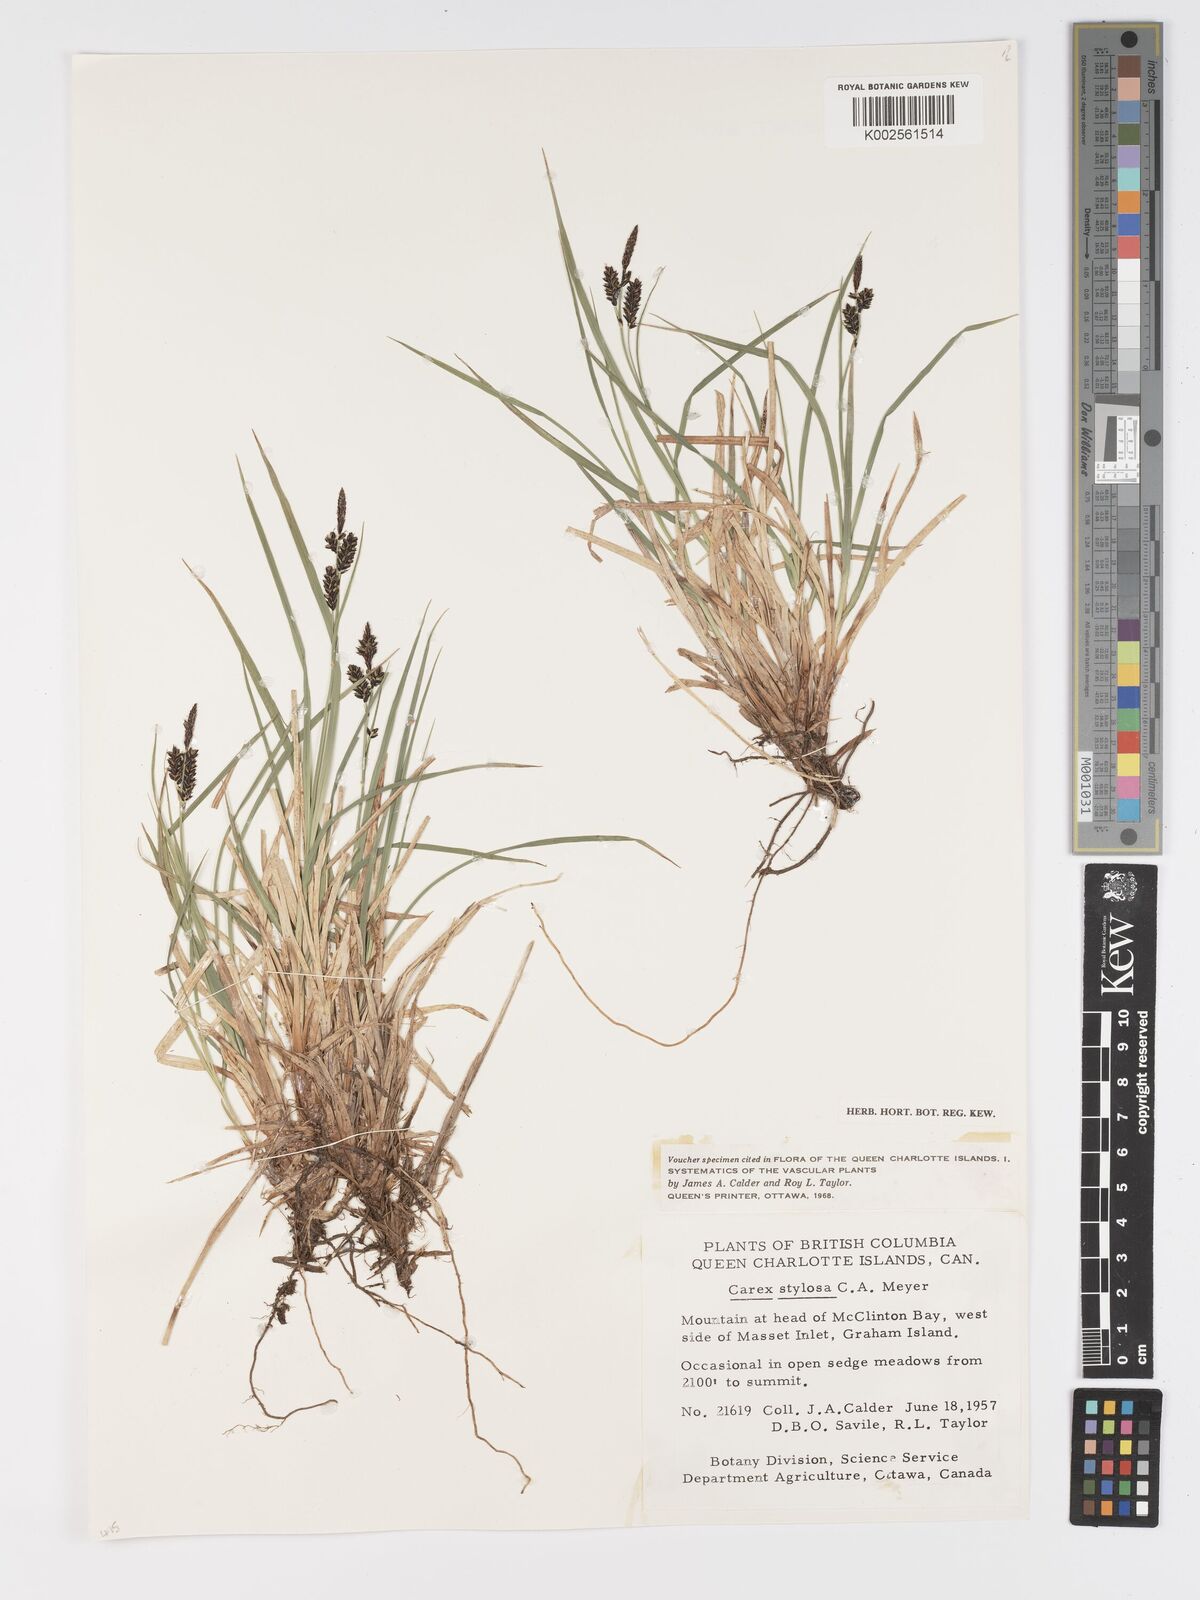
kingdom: Plantae
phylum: Tracheophyta
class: Liliopsida
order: Poales
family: Cyperaceae
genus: Carex
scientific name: Carex stylosa
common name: Long-styled sedge
